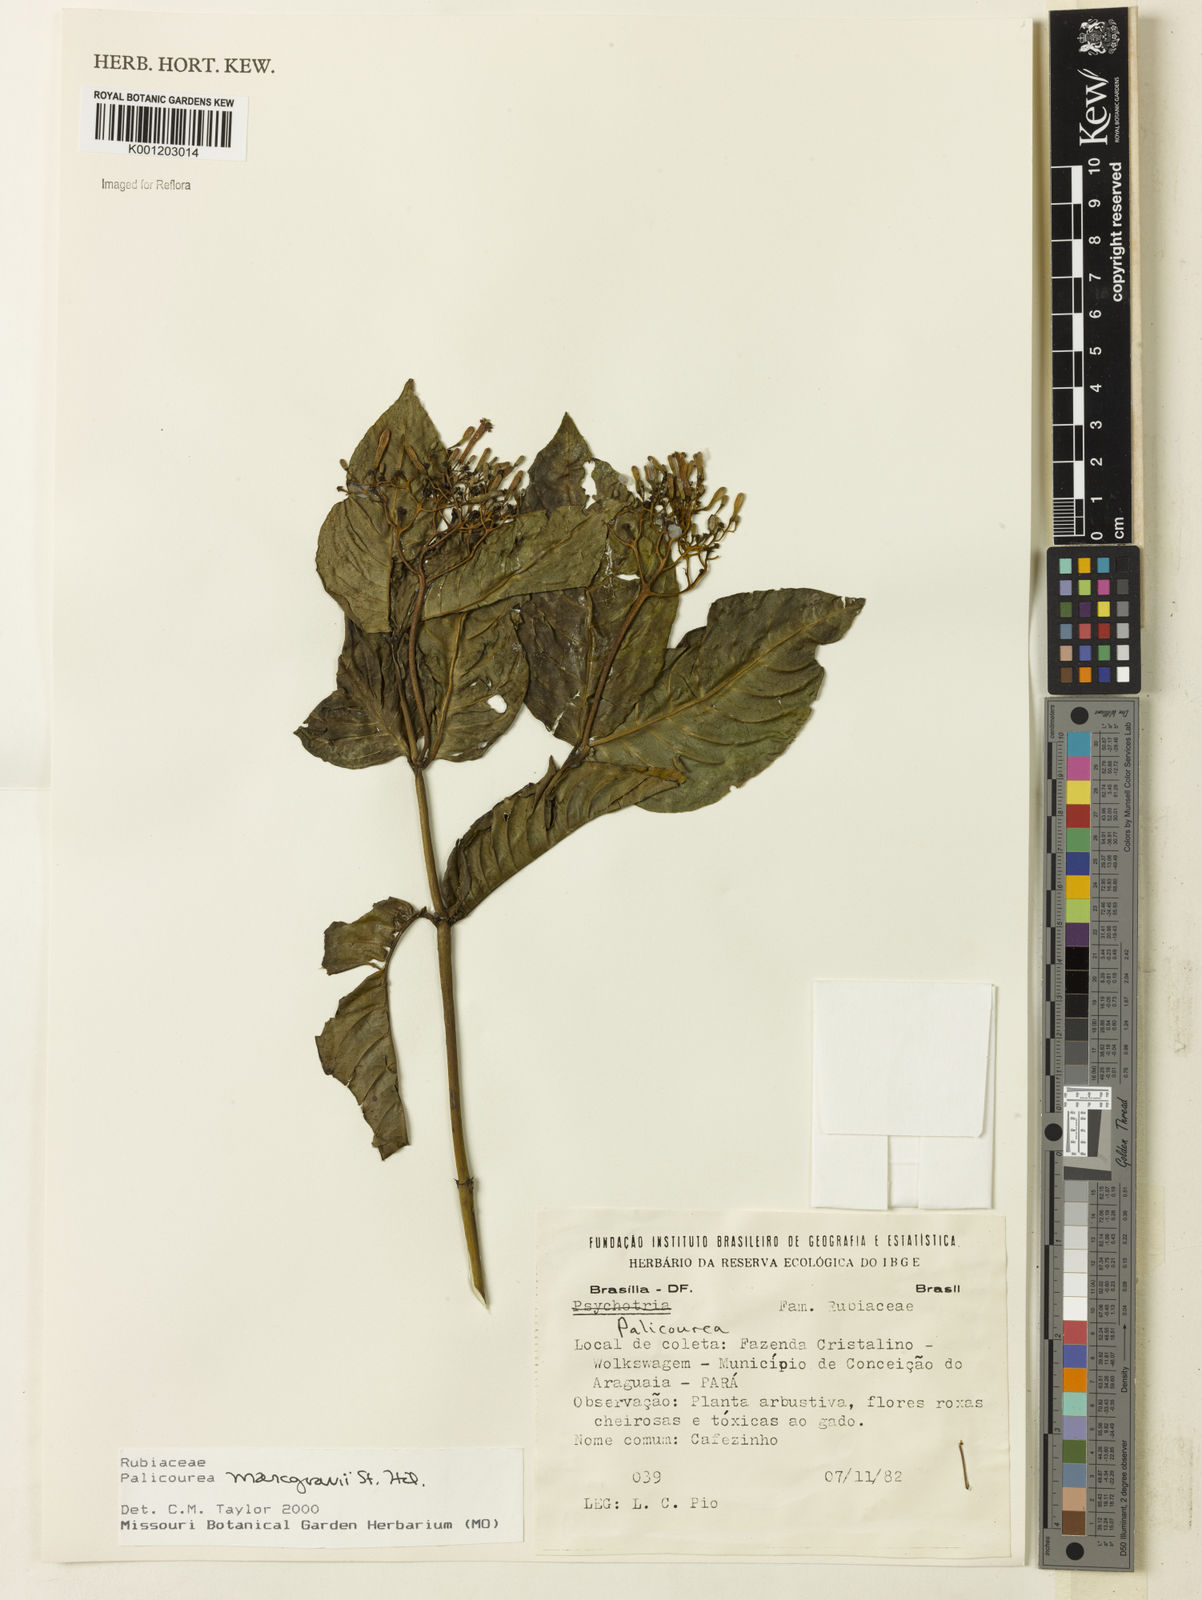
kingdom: Plantae
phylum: Tracheophyta
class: Magnoliopsida
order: Gentianales
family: Rubiaceae
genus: Palicourea
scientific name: Palicourea marcgravii
